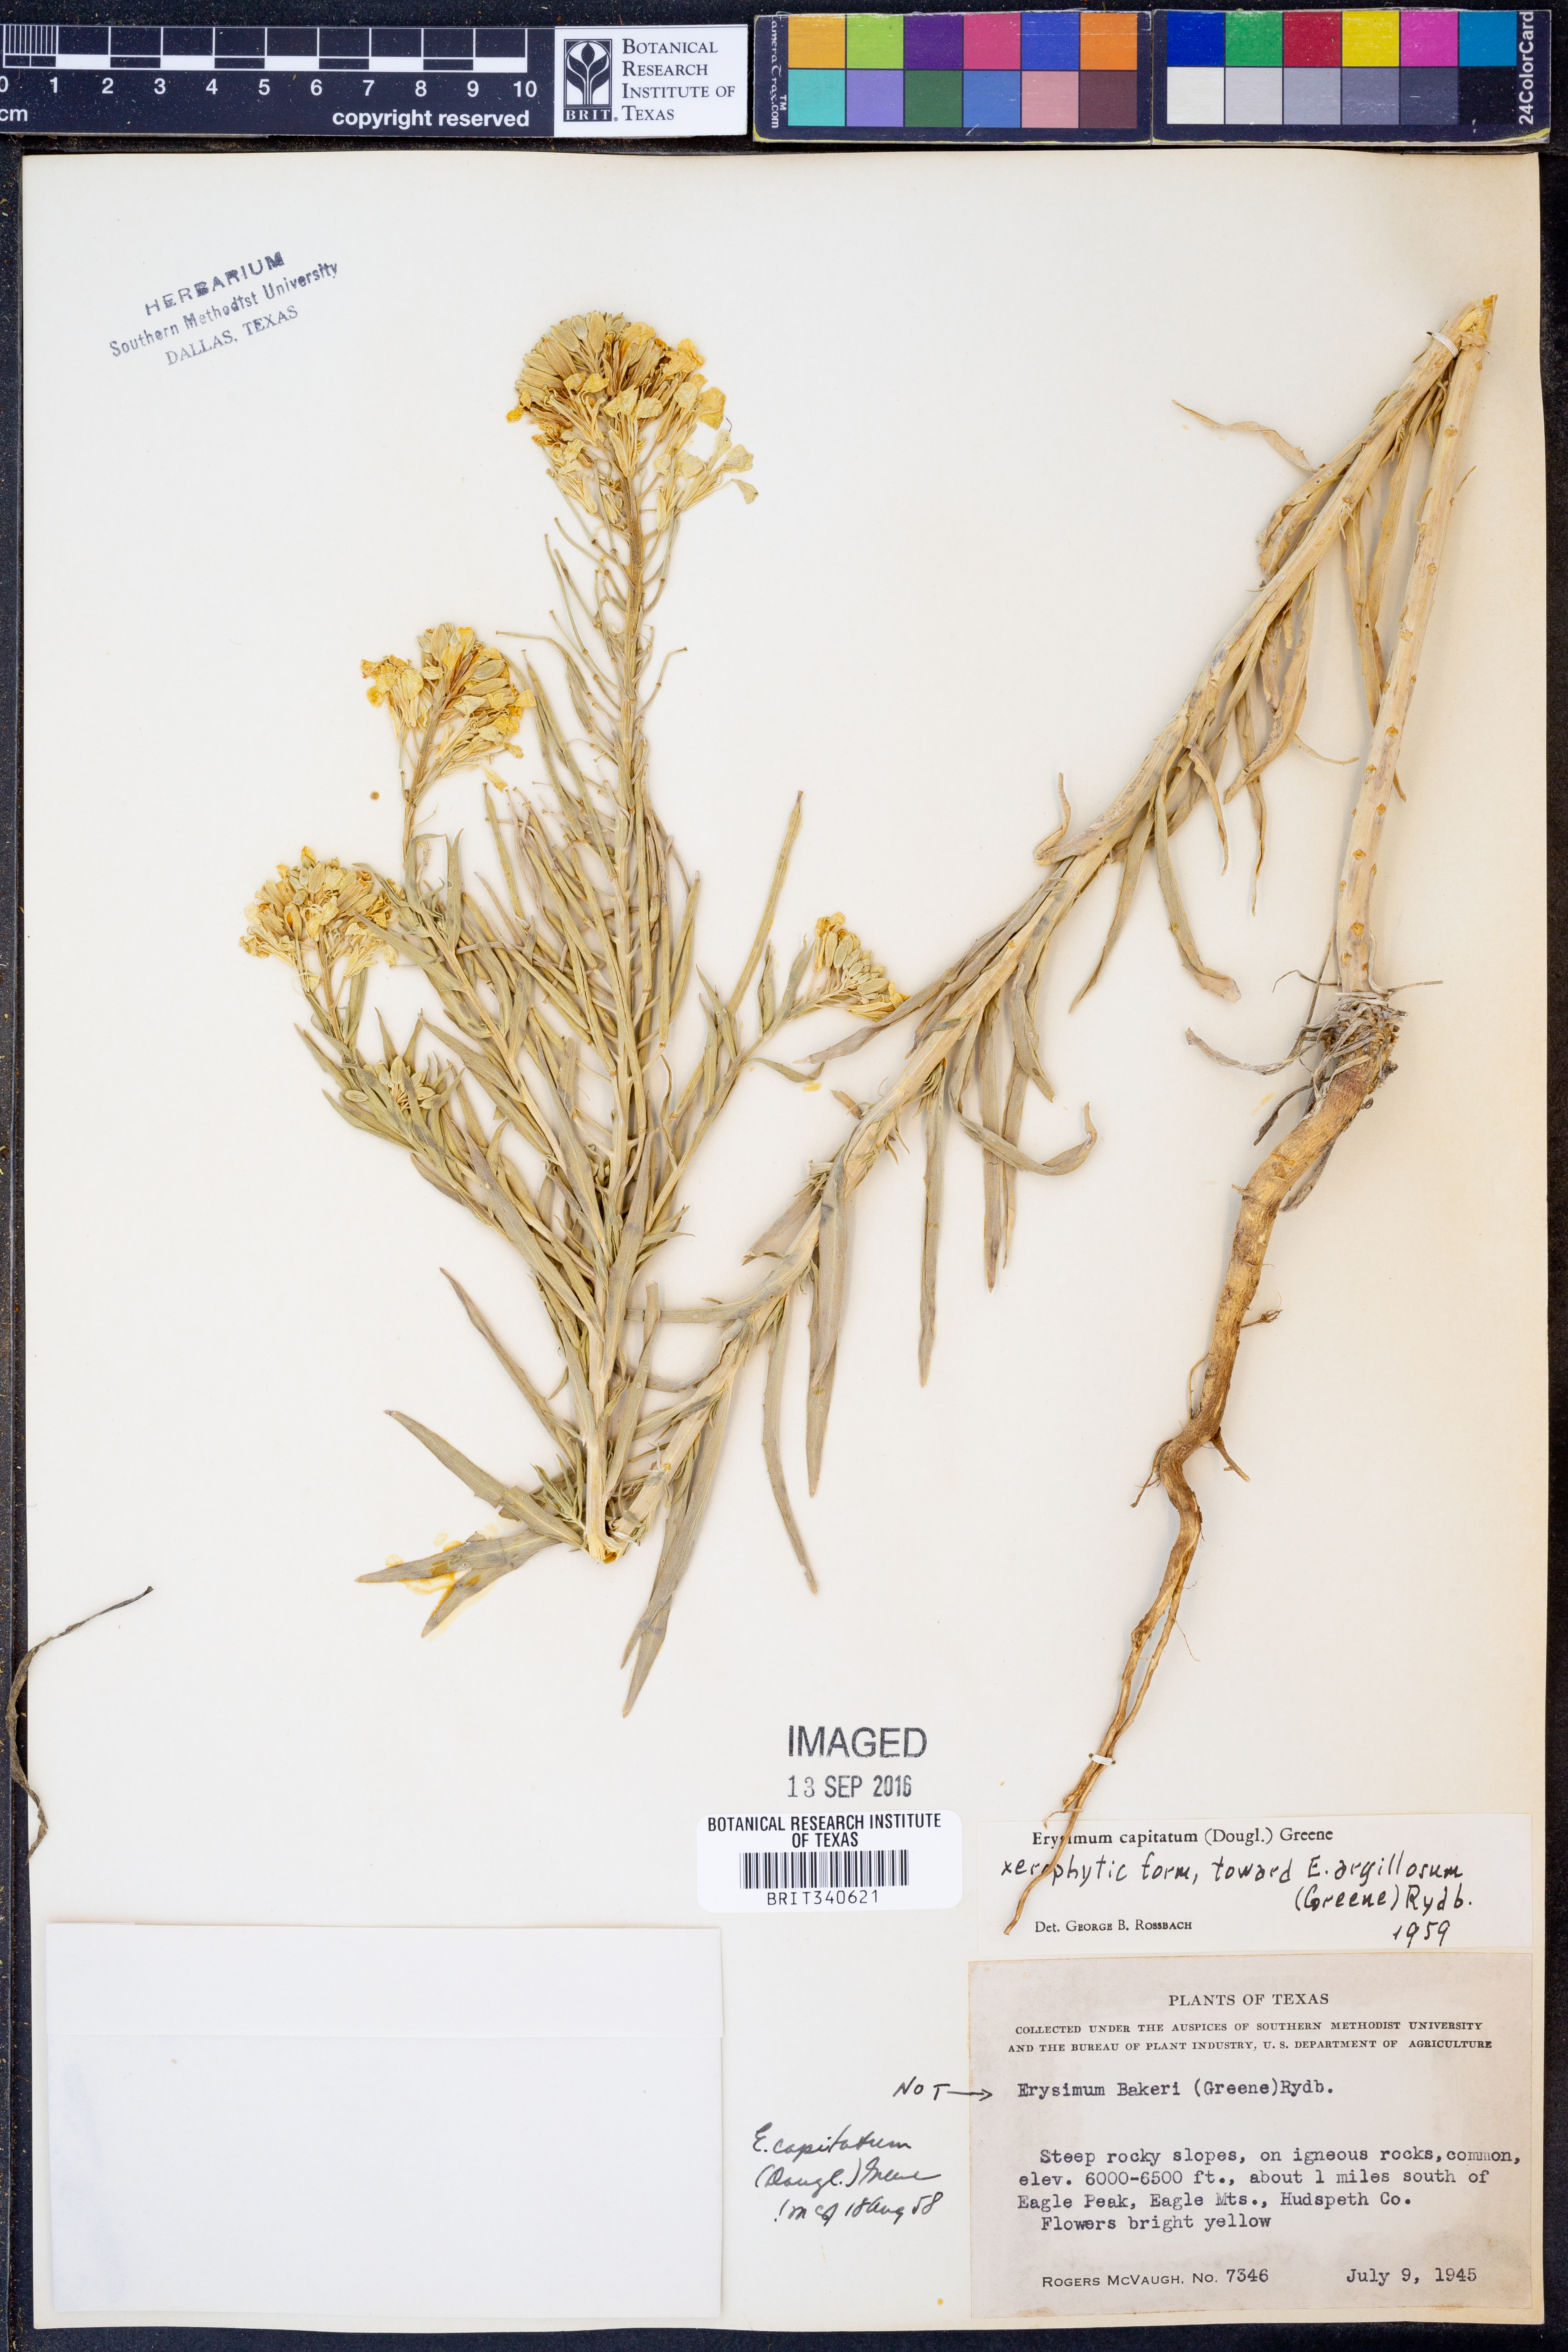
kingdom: Plantae
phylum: Tracheophyta
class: Magnoliopsida
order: Brassicales
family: Brassicaceae
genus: Erysimum
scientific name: Erysimum capitatum
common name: Western wallflower
